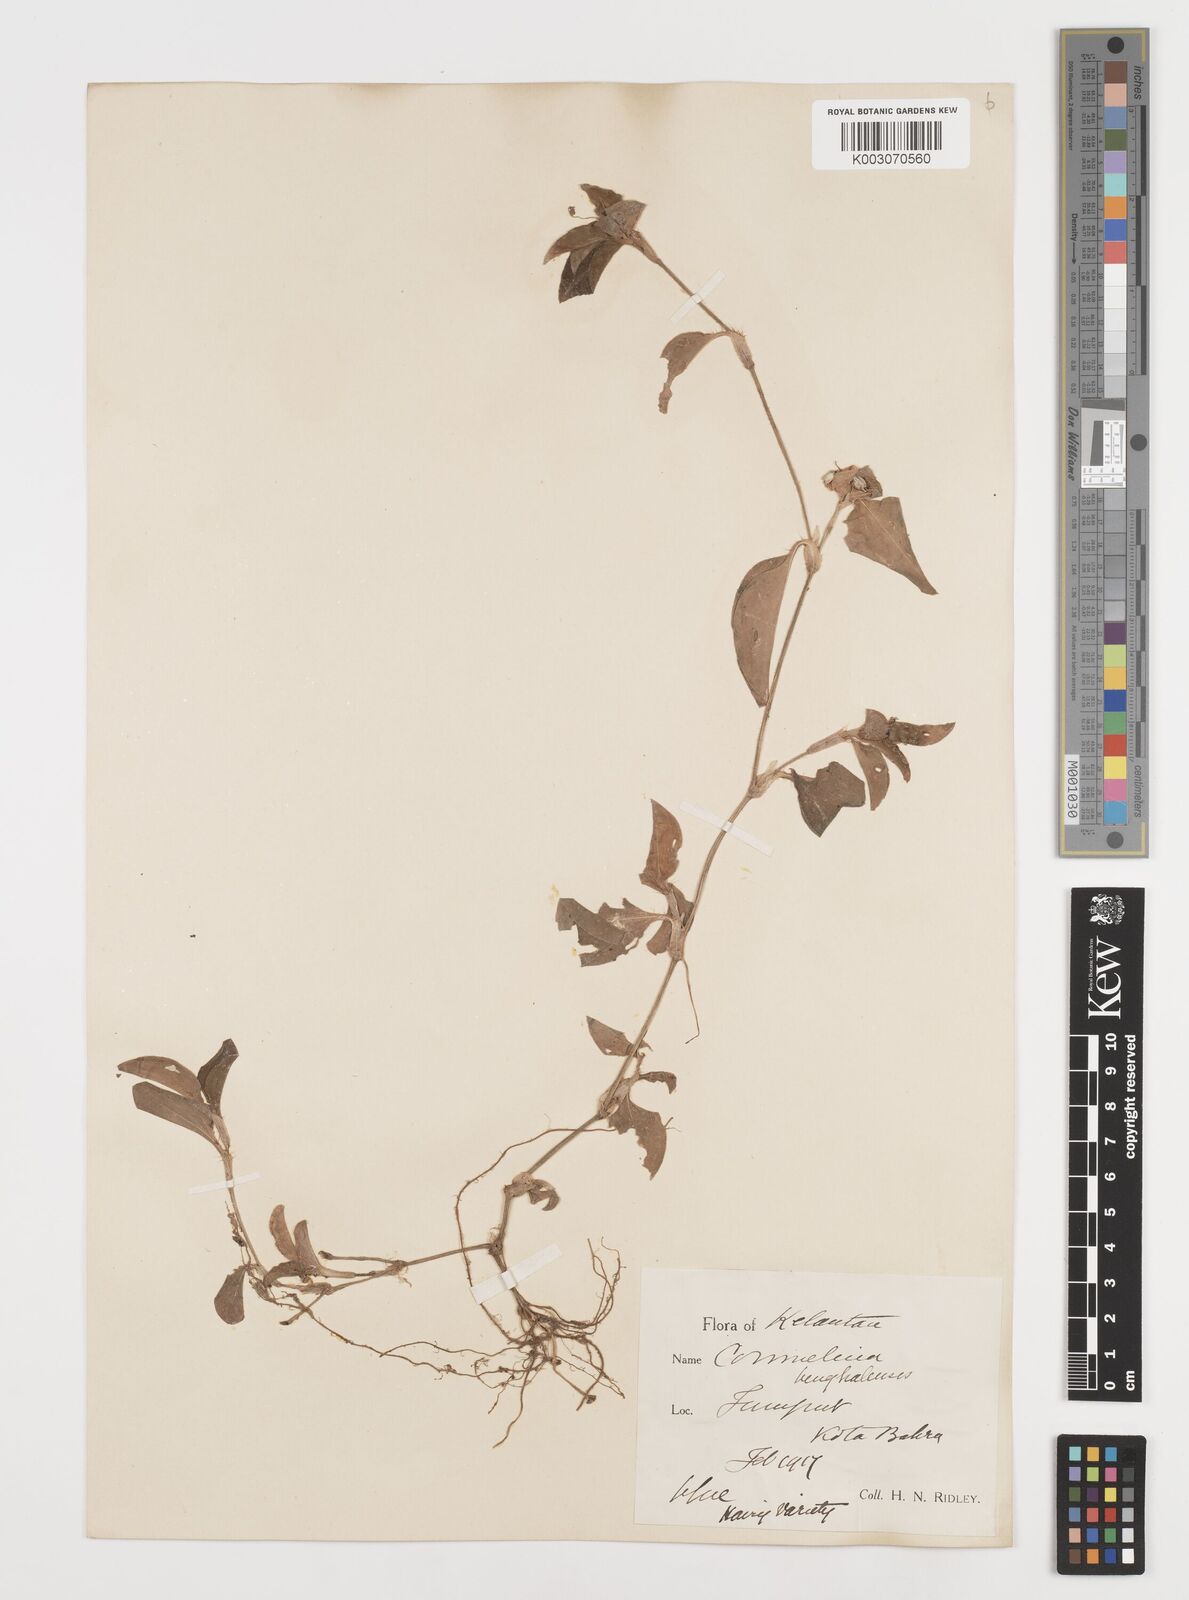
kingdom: Plantae
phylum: Tracheophyta
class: Liliopsida
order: Commelinales
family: Commelinaceae
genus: Commelina
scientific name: Commelina benghalensis
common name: Jio
